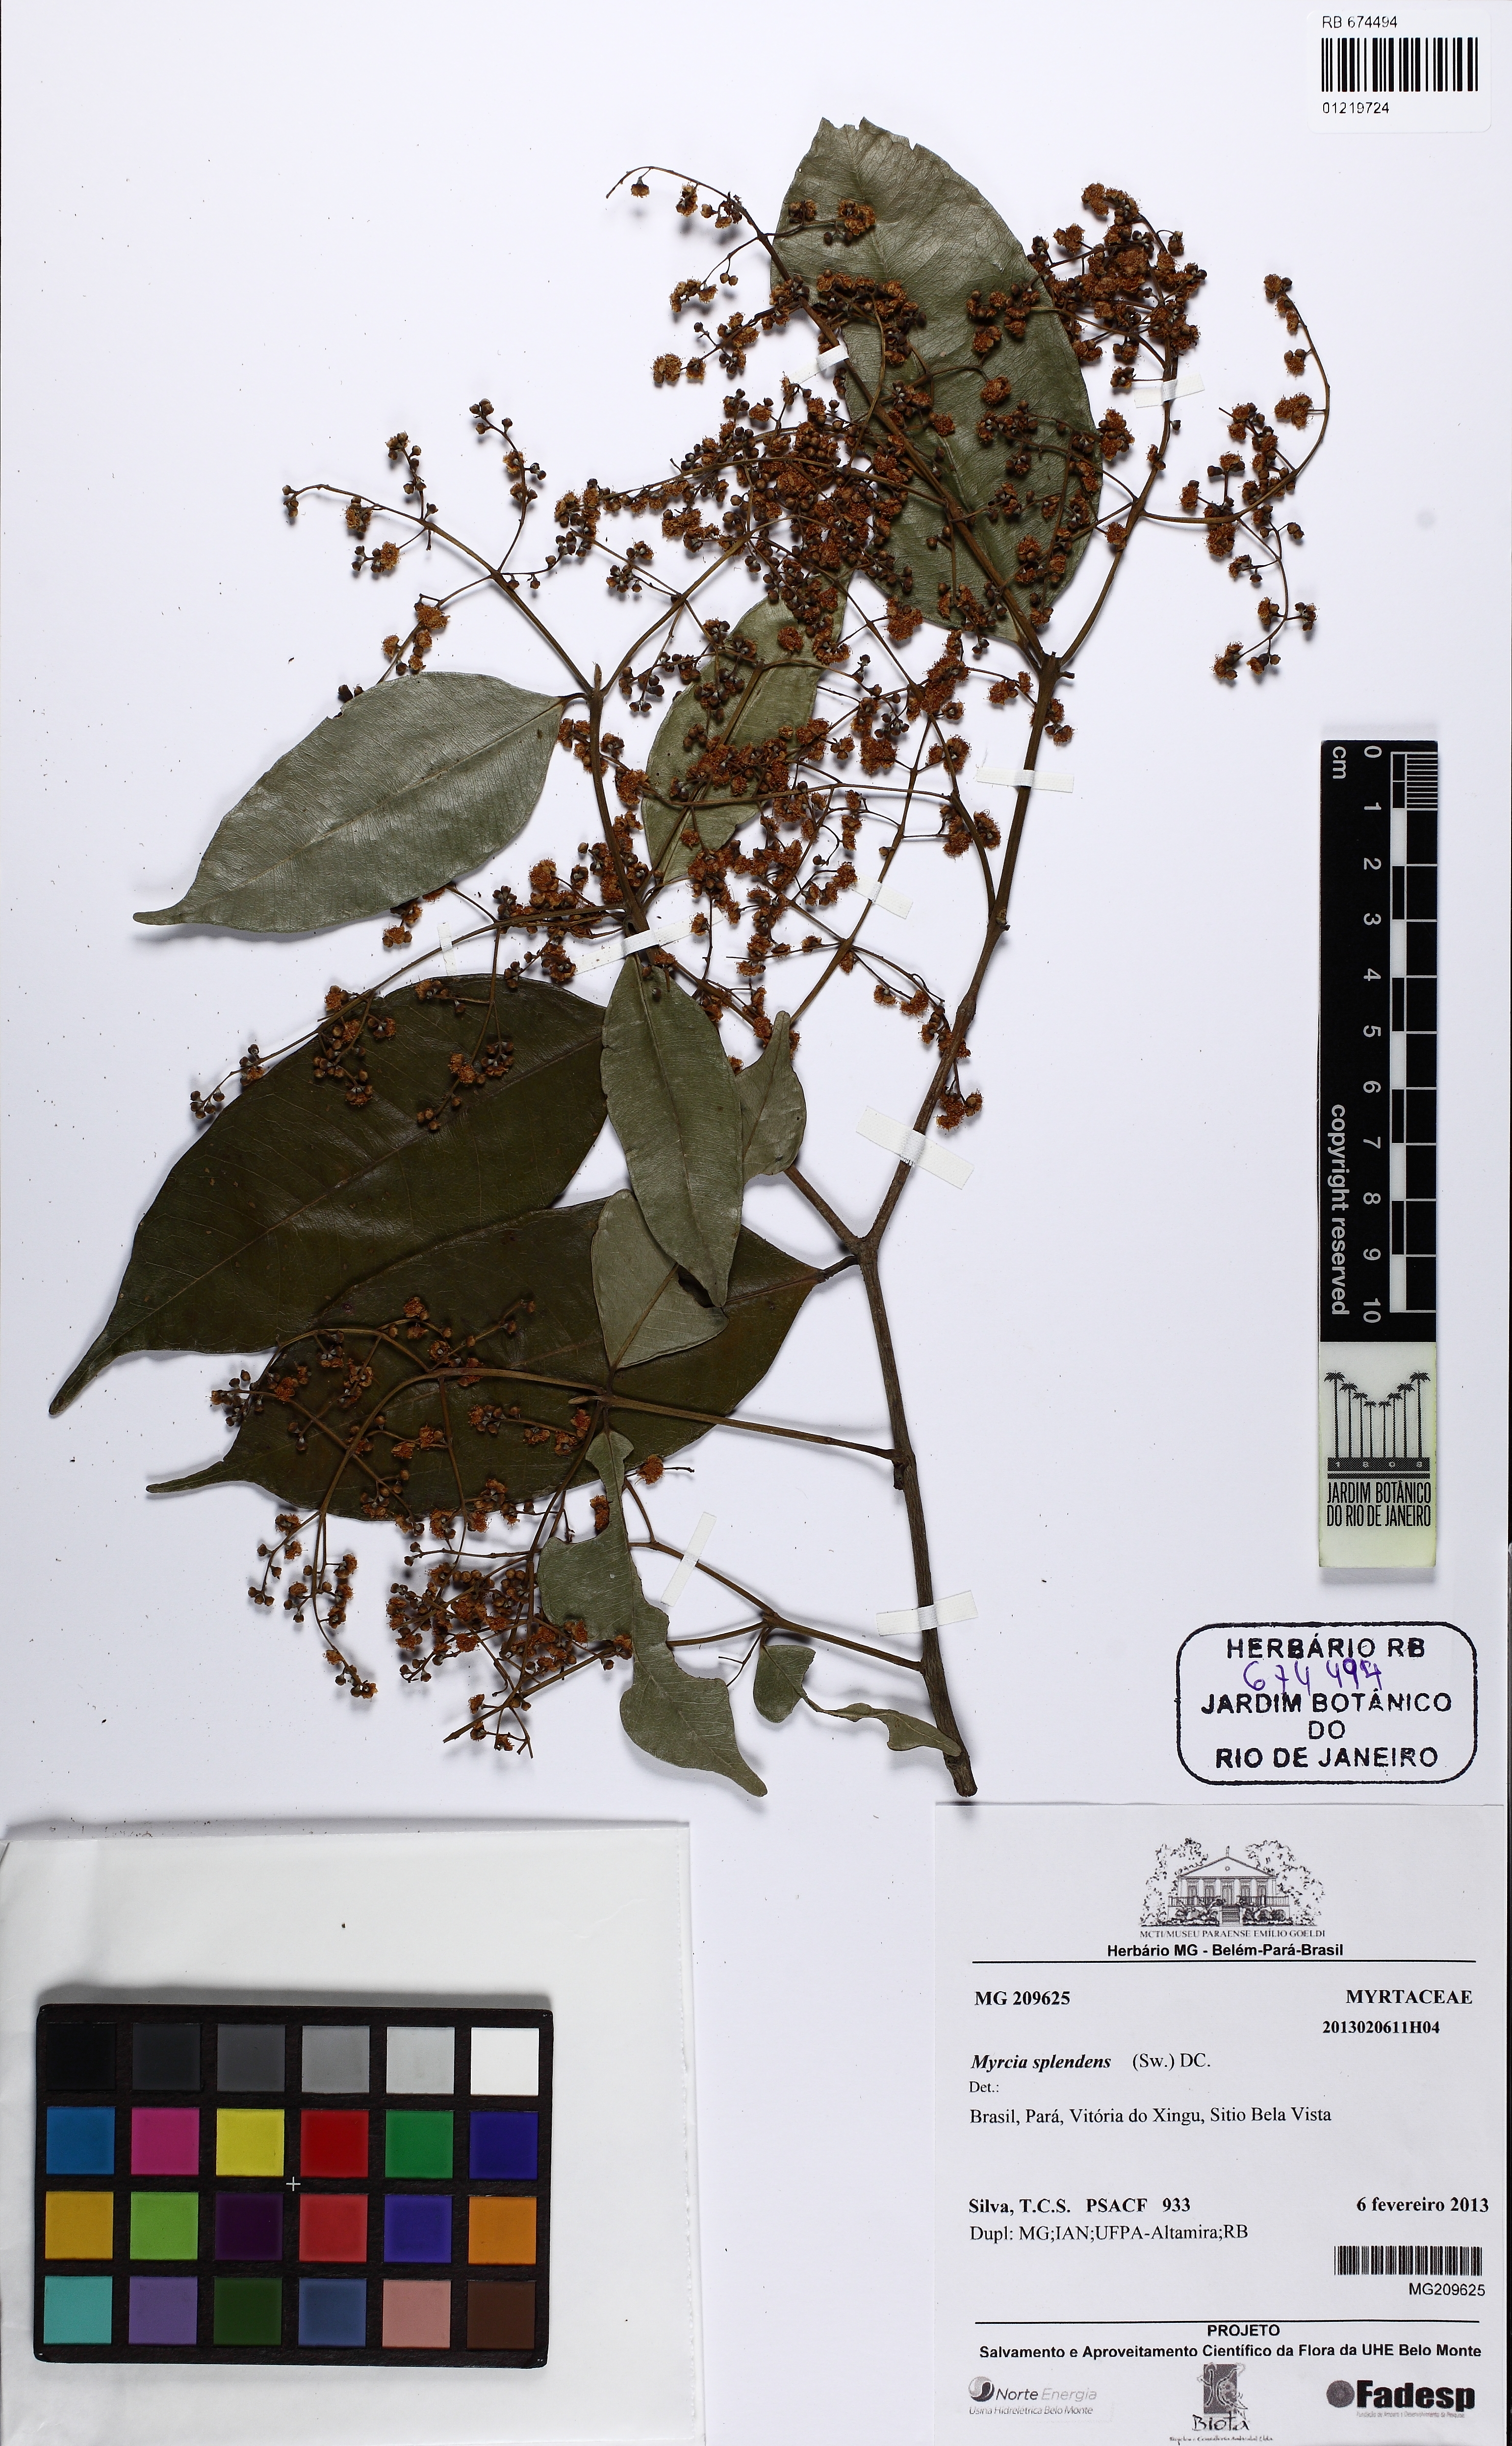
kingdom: Plantae
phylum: Tracheophyta
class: Magnoliopsida
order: Myrtales
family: Myrtaceae
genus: Myrcia
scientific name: Myrcia splendens
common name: Surinam cherry
